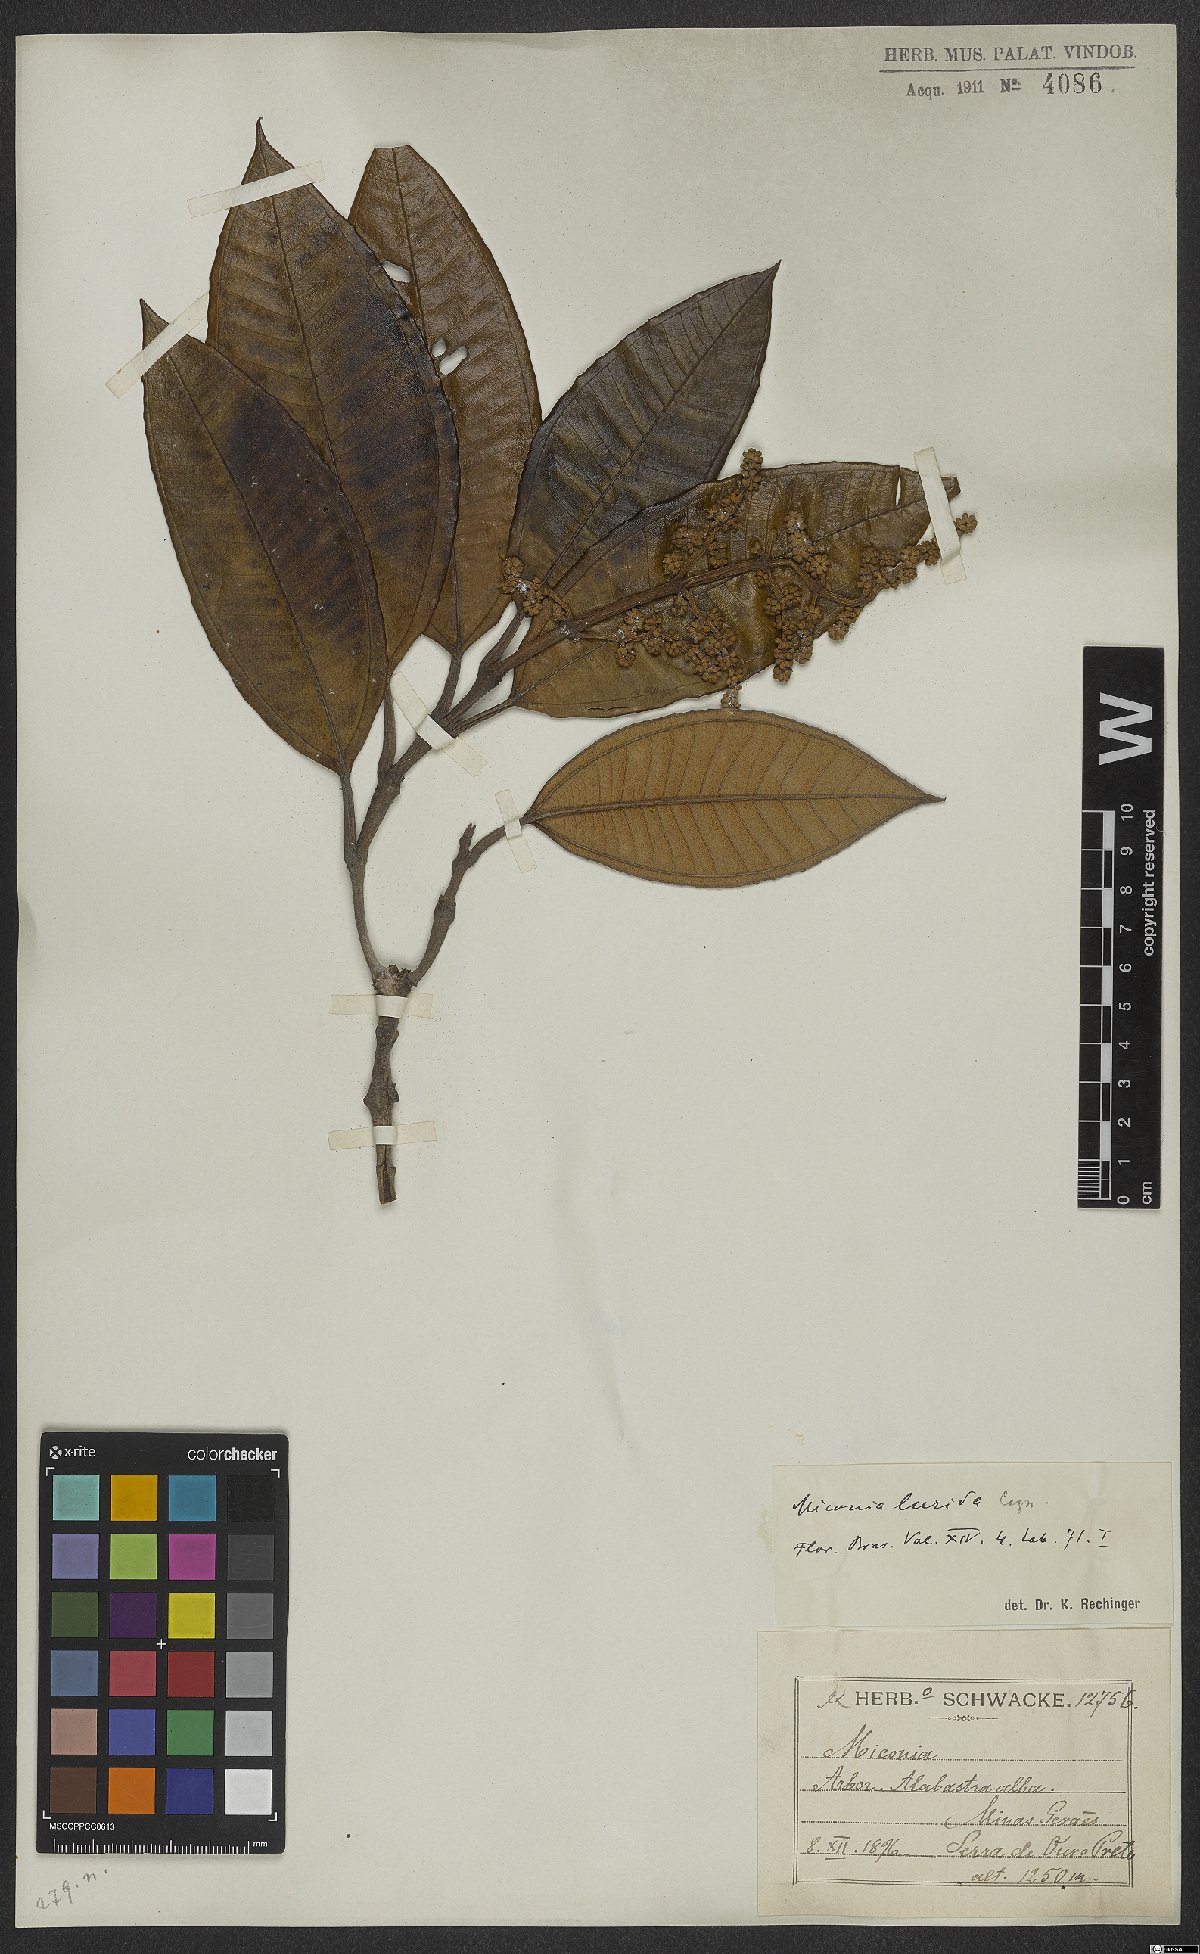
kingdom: Plantae
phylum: Tracheophyta
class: Magnoliopsida
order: Myrtales
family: Melastomataceae
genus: Miconia
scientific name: Miconia lurida
